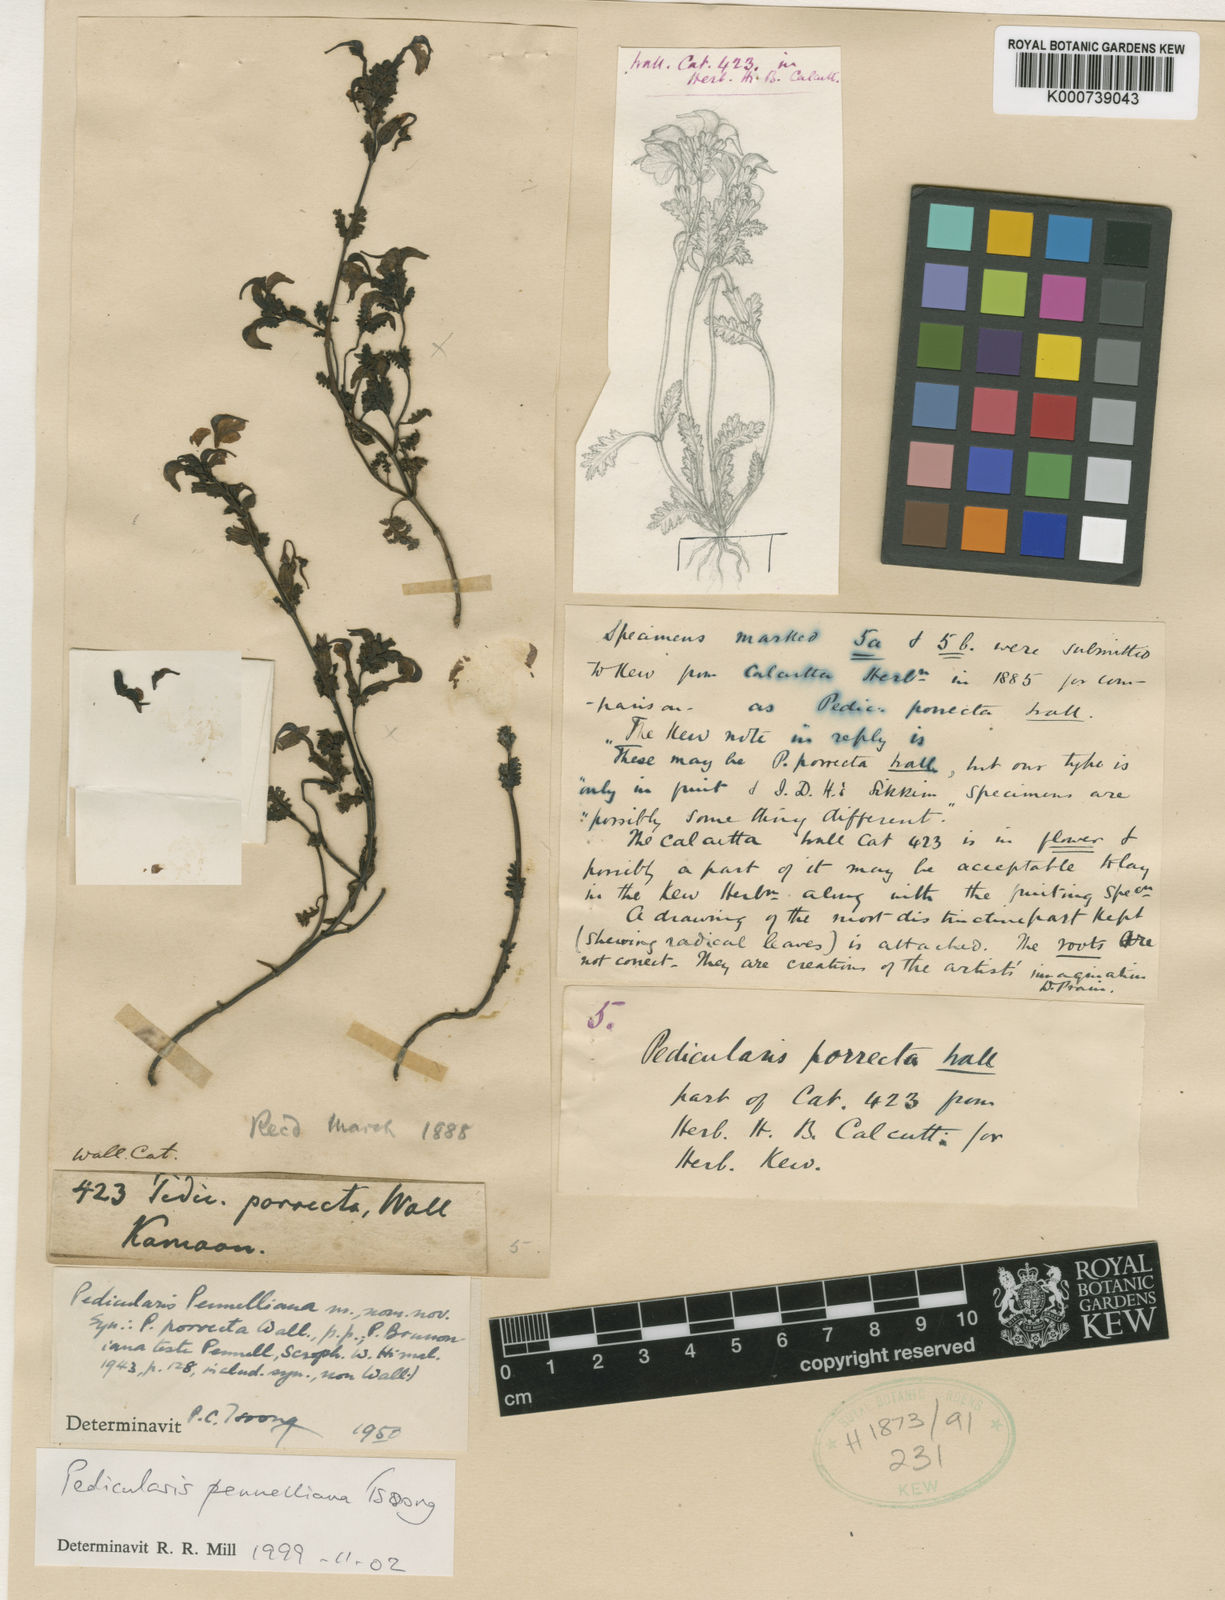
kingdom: Plantae
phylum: Tracheophyta
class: Magnoliopsida
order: Lamiales
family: Orobanchaceae
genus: Pedicularis
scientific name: Pedicularis
